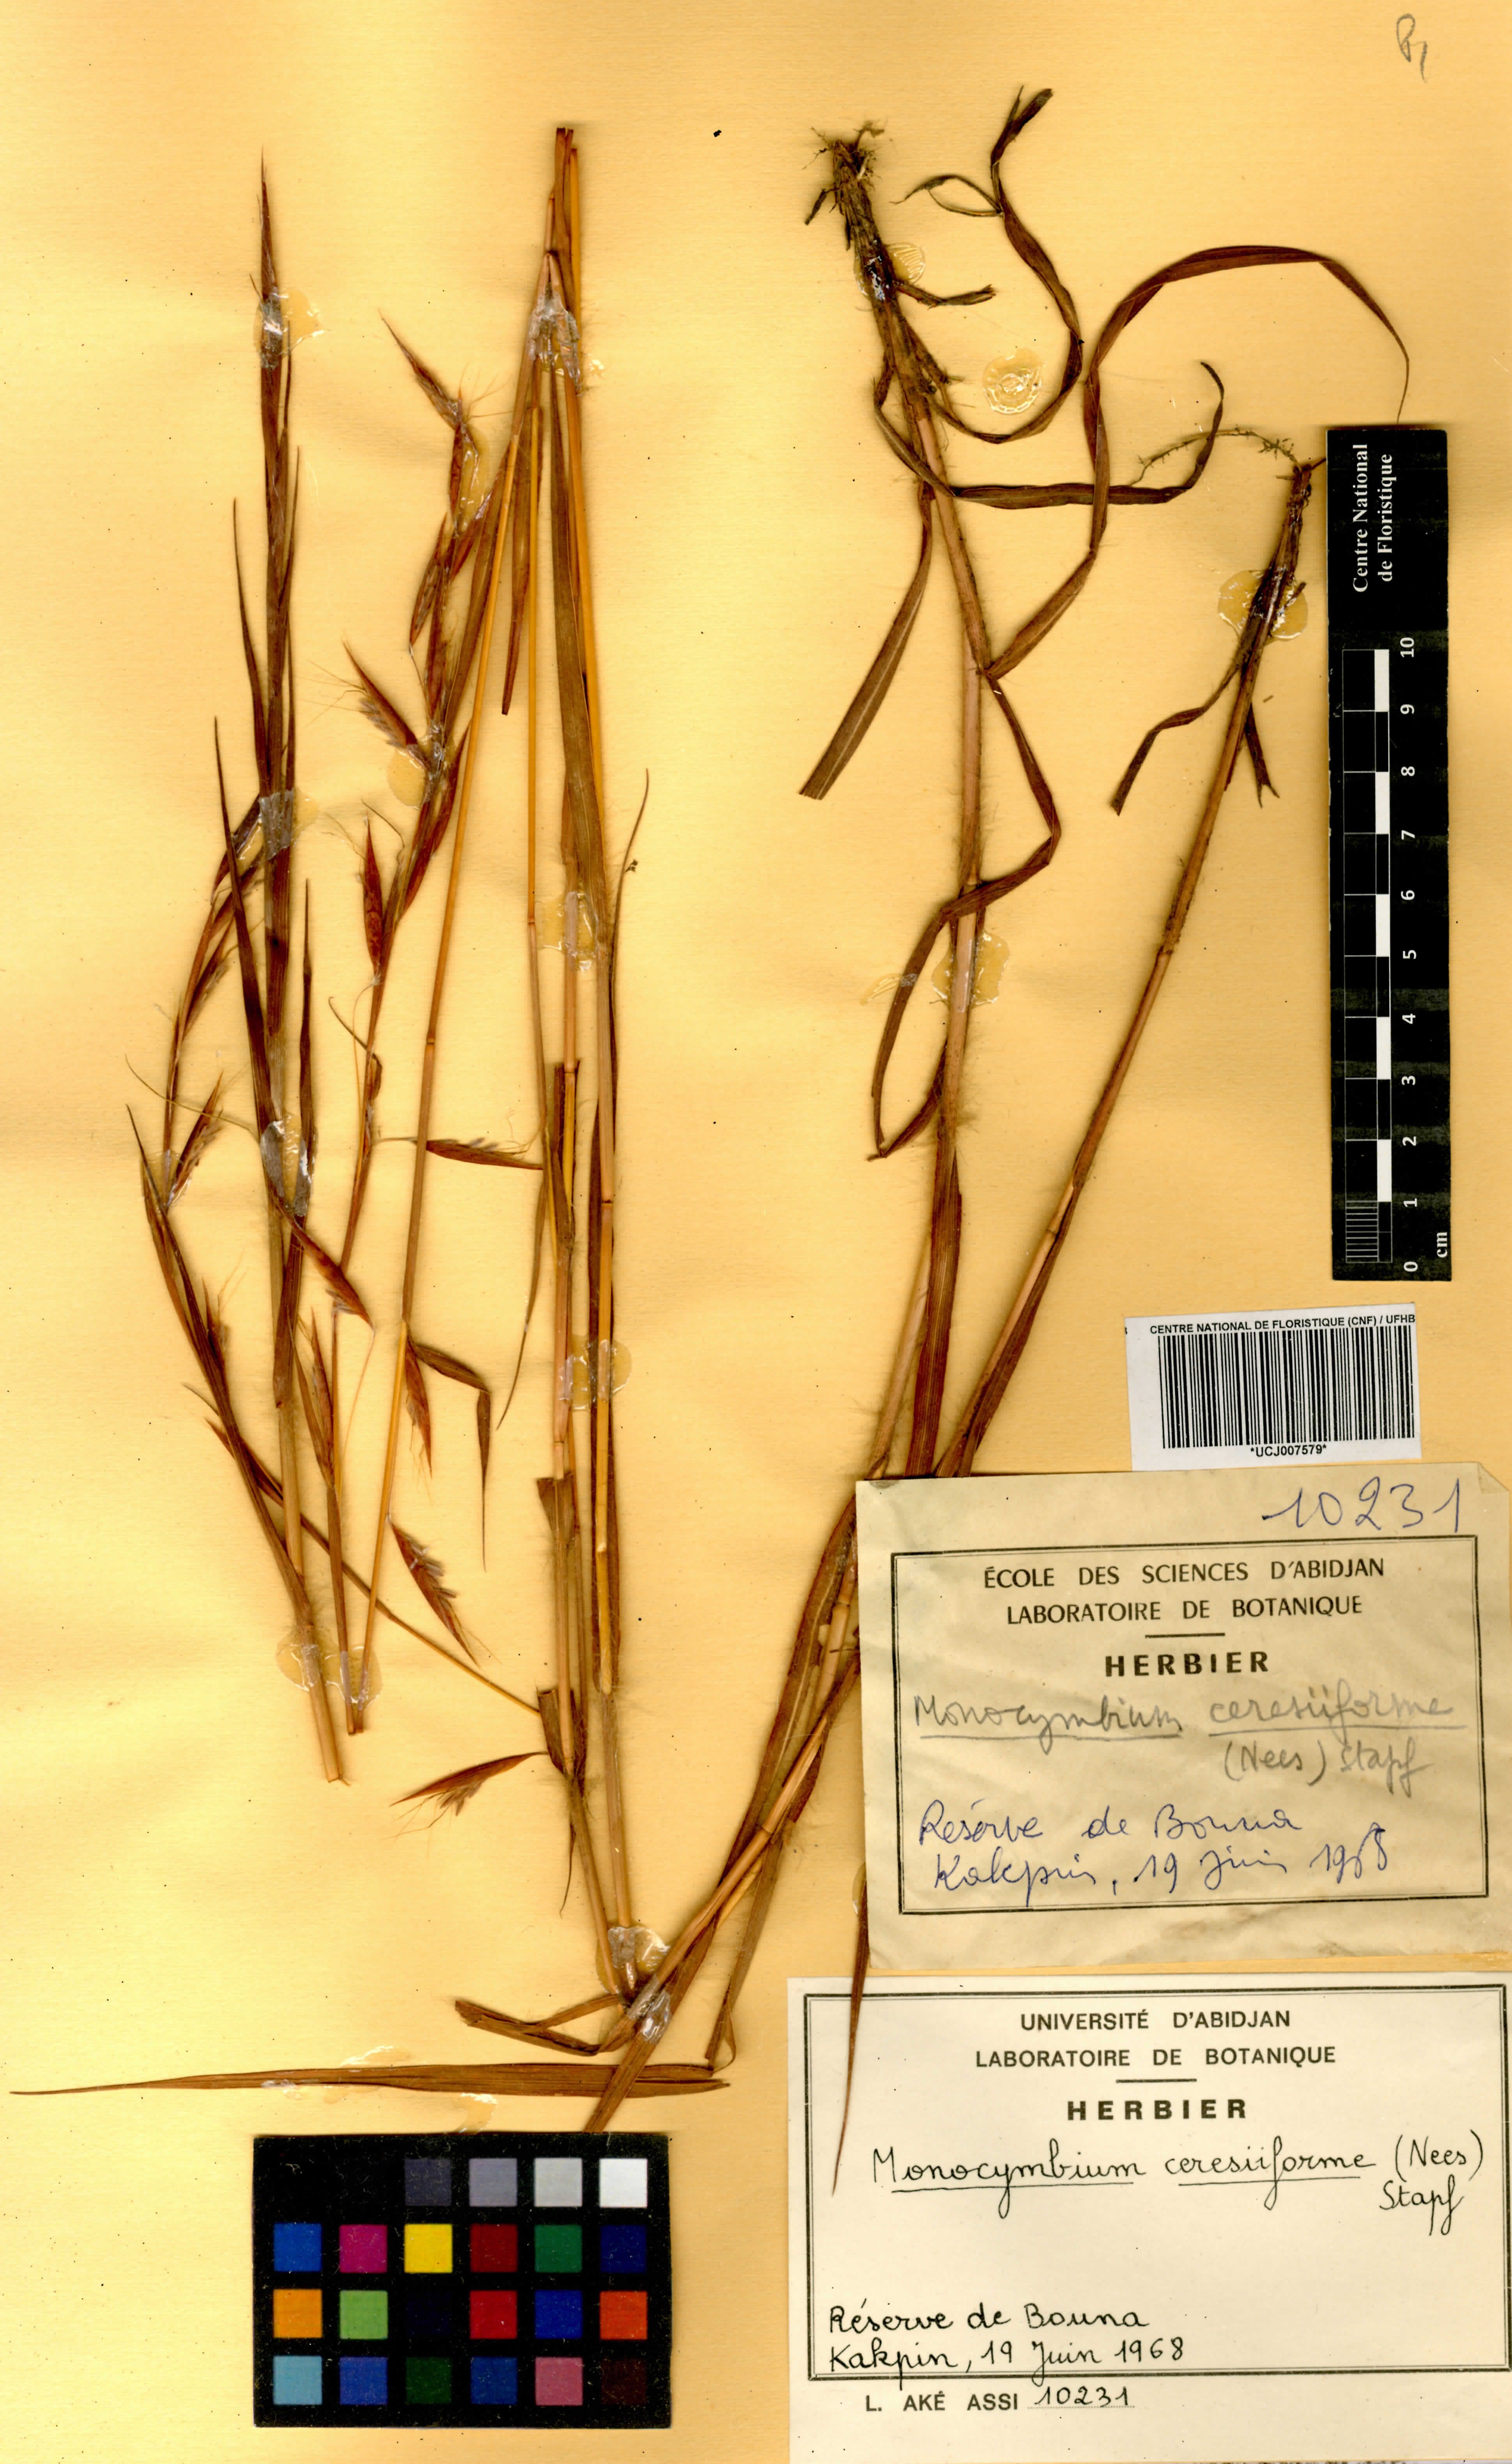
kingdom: Plantae
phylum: Tracheophyta
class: Liliopsida
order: Poales
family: Poaceae
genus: Monocymbium
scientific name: Monocymbium ceresiiforme
